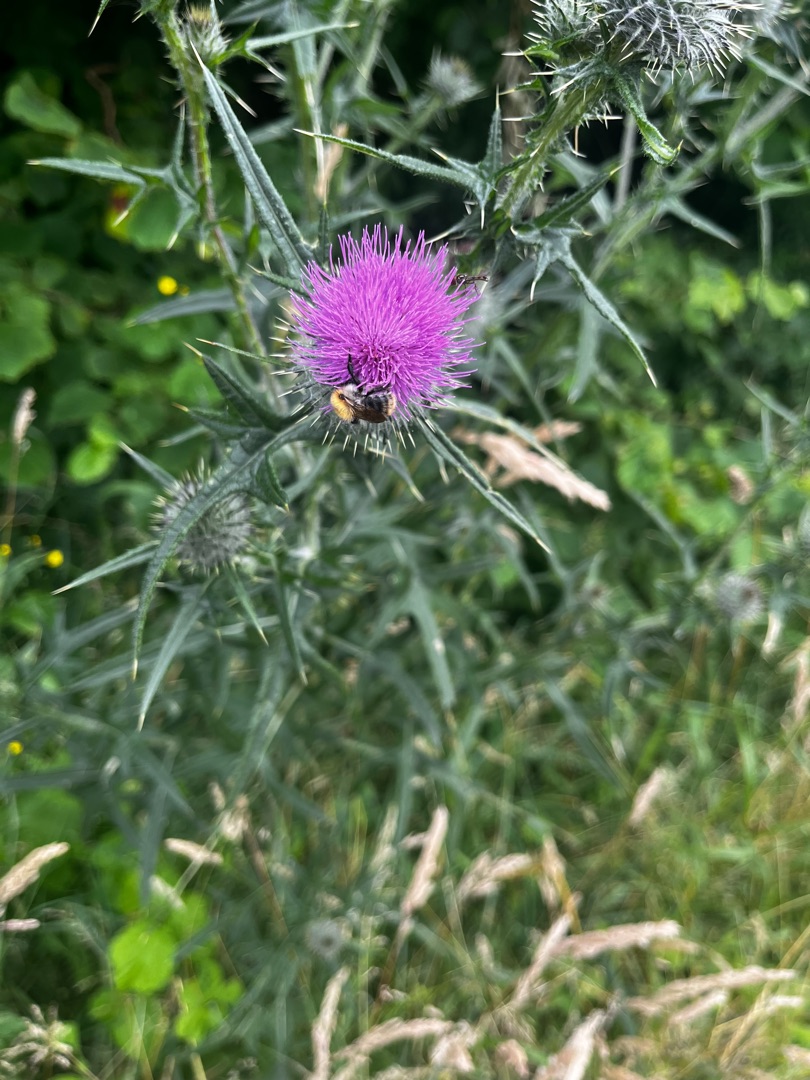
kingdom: Plantae
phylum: Tracheophyta
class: Magnoliopsida
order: Asterales
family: Asteraceae
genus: Cirsium
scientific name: Cirsium vulgare
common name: Horse-tidsel
